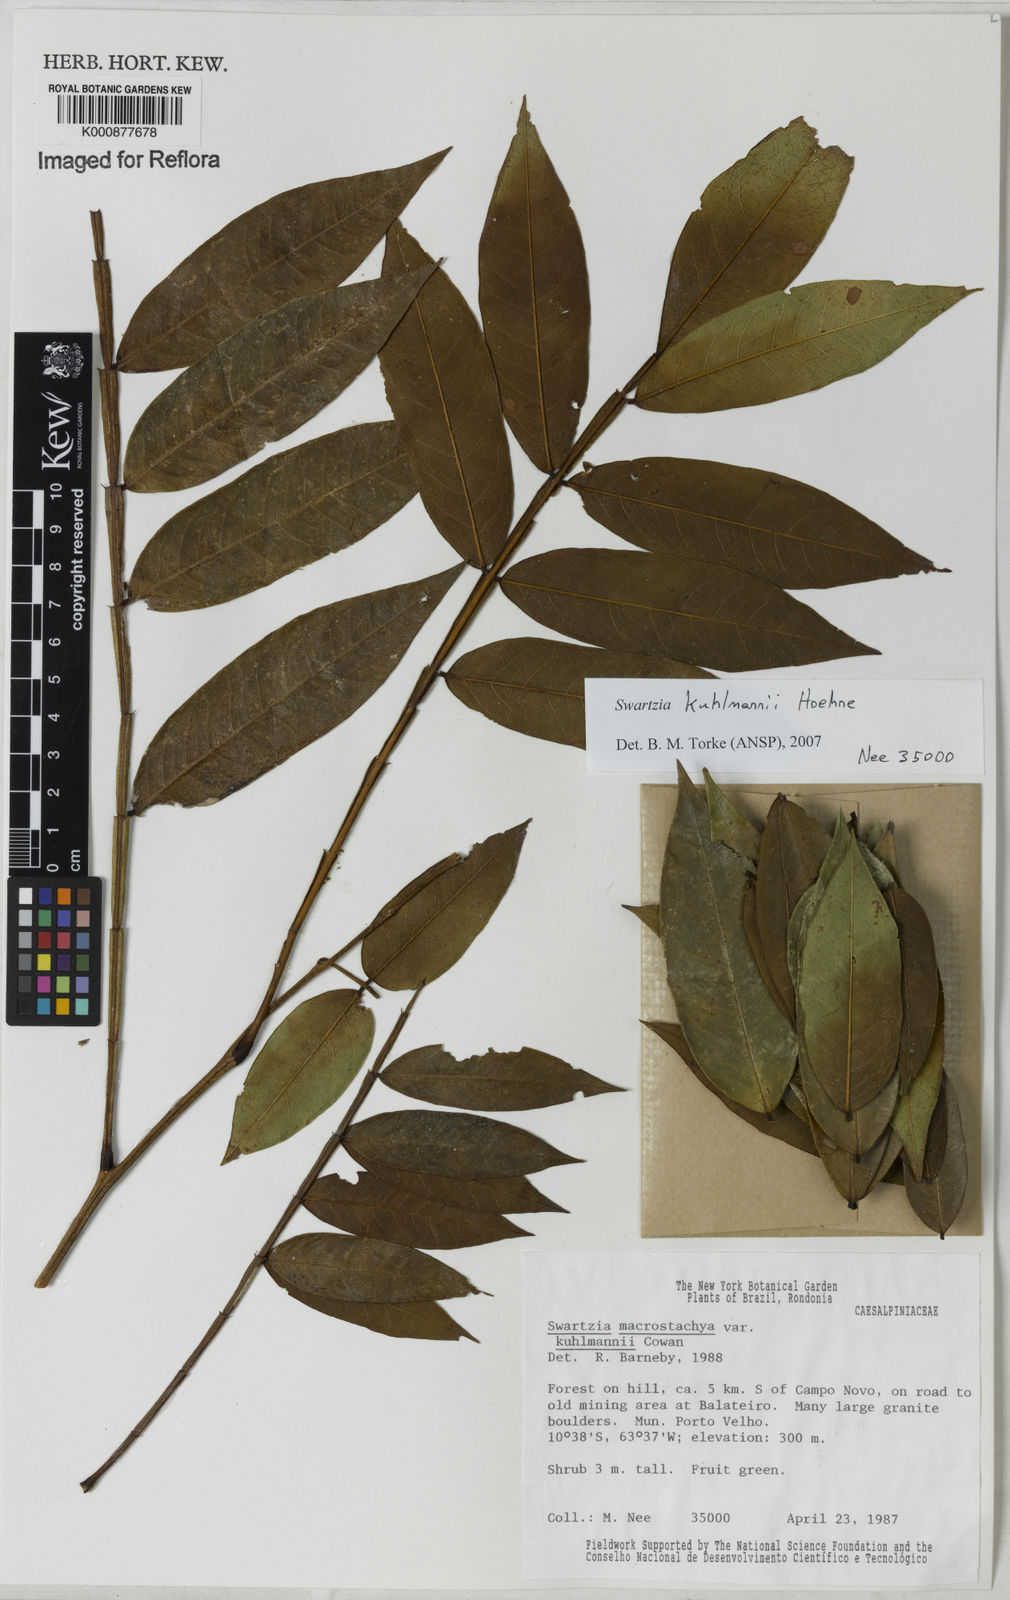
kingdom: Plantae
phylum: Tracheophyta
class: Magnoliopsida
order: Fabales
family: Fabaceae
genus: Swartzia
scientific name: Swartzia kuhlmannii
